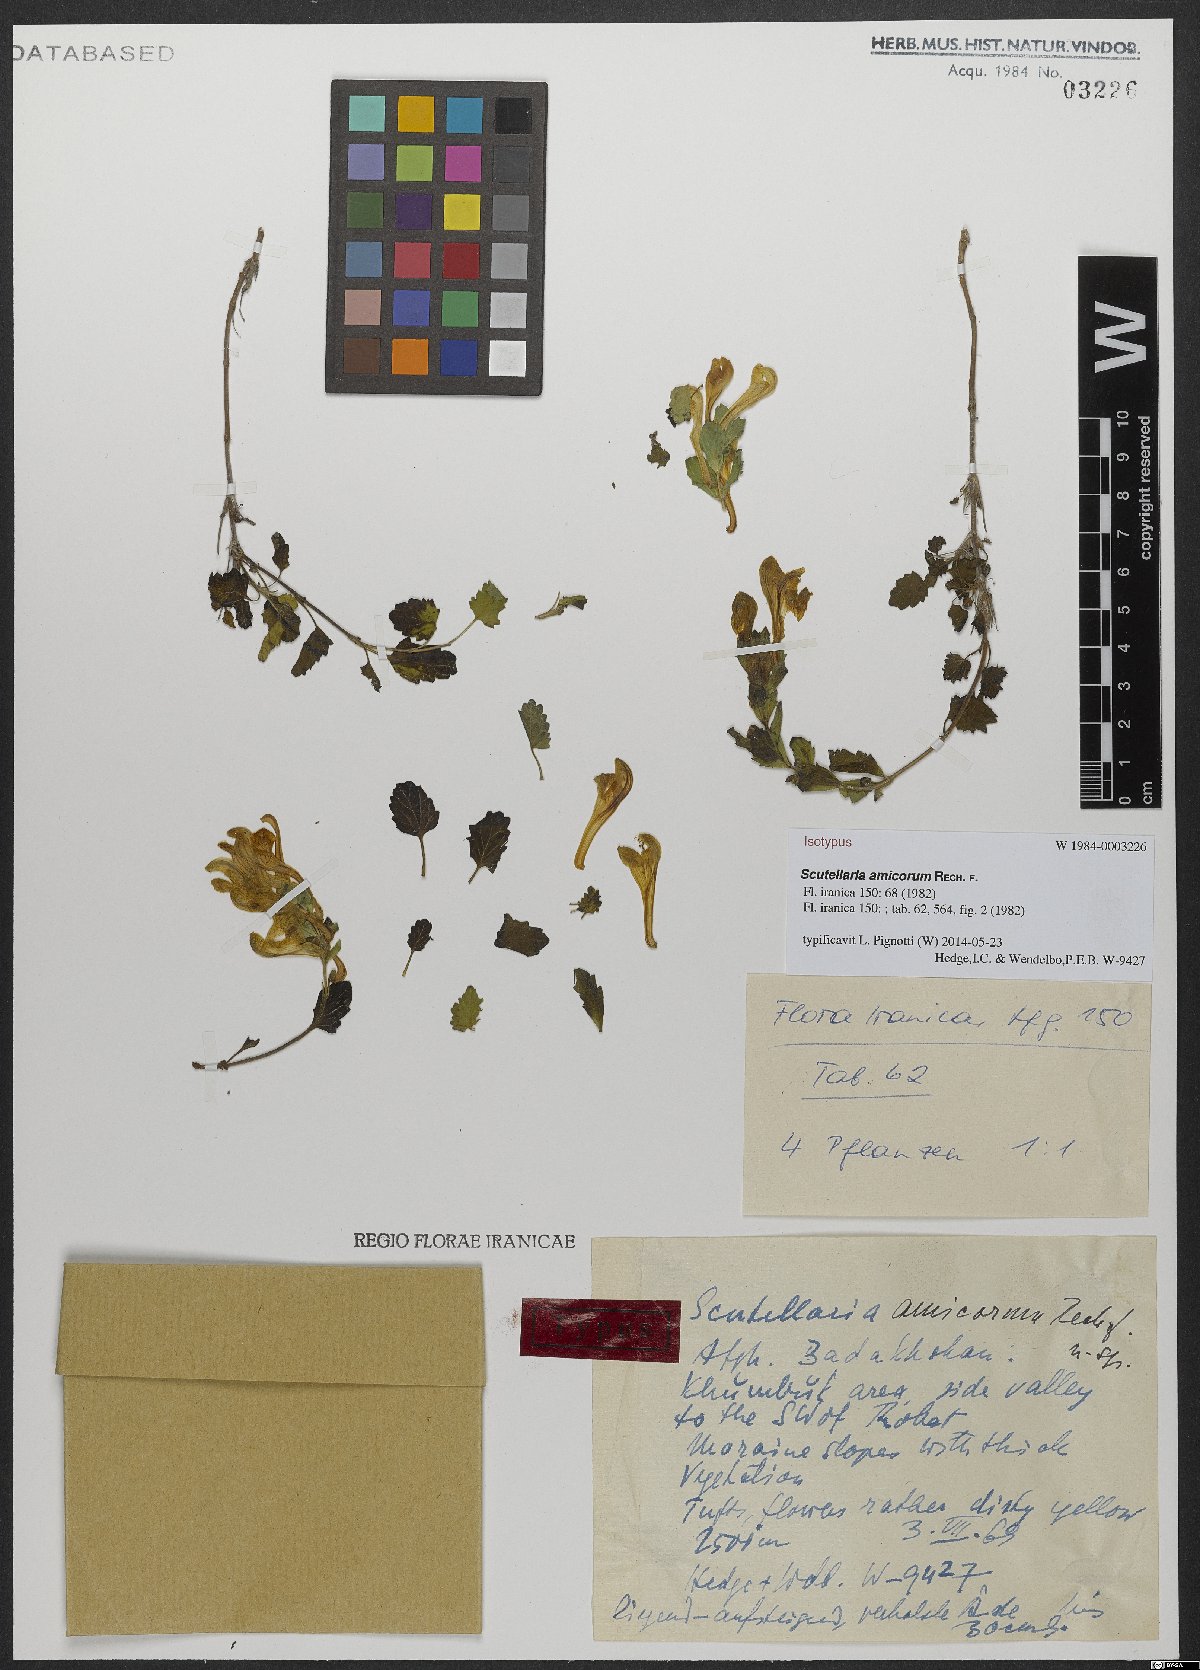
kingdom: Plantae
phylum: Tracheophyta
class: Magnoliopsida
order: Lamiales
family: Lamiaceae
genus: Scutellaria
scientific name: Scutellaria amicorum
